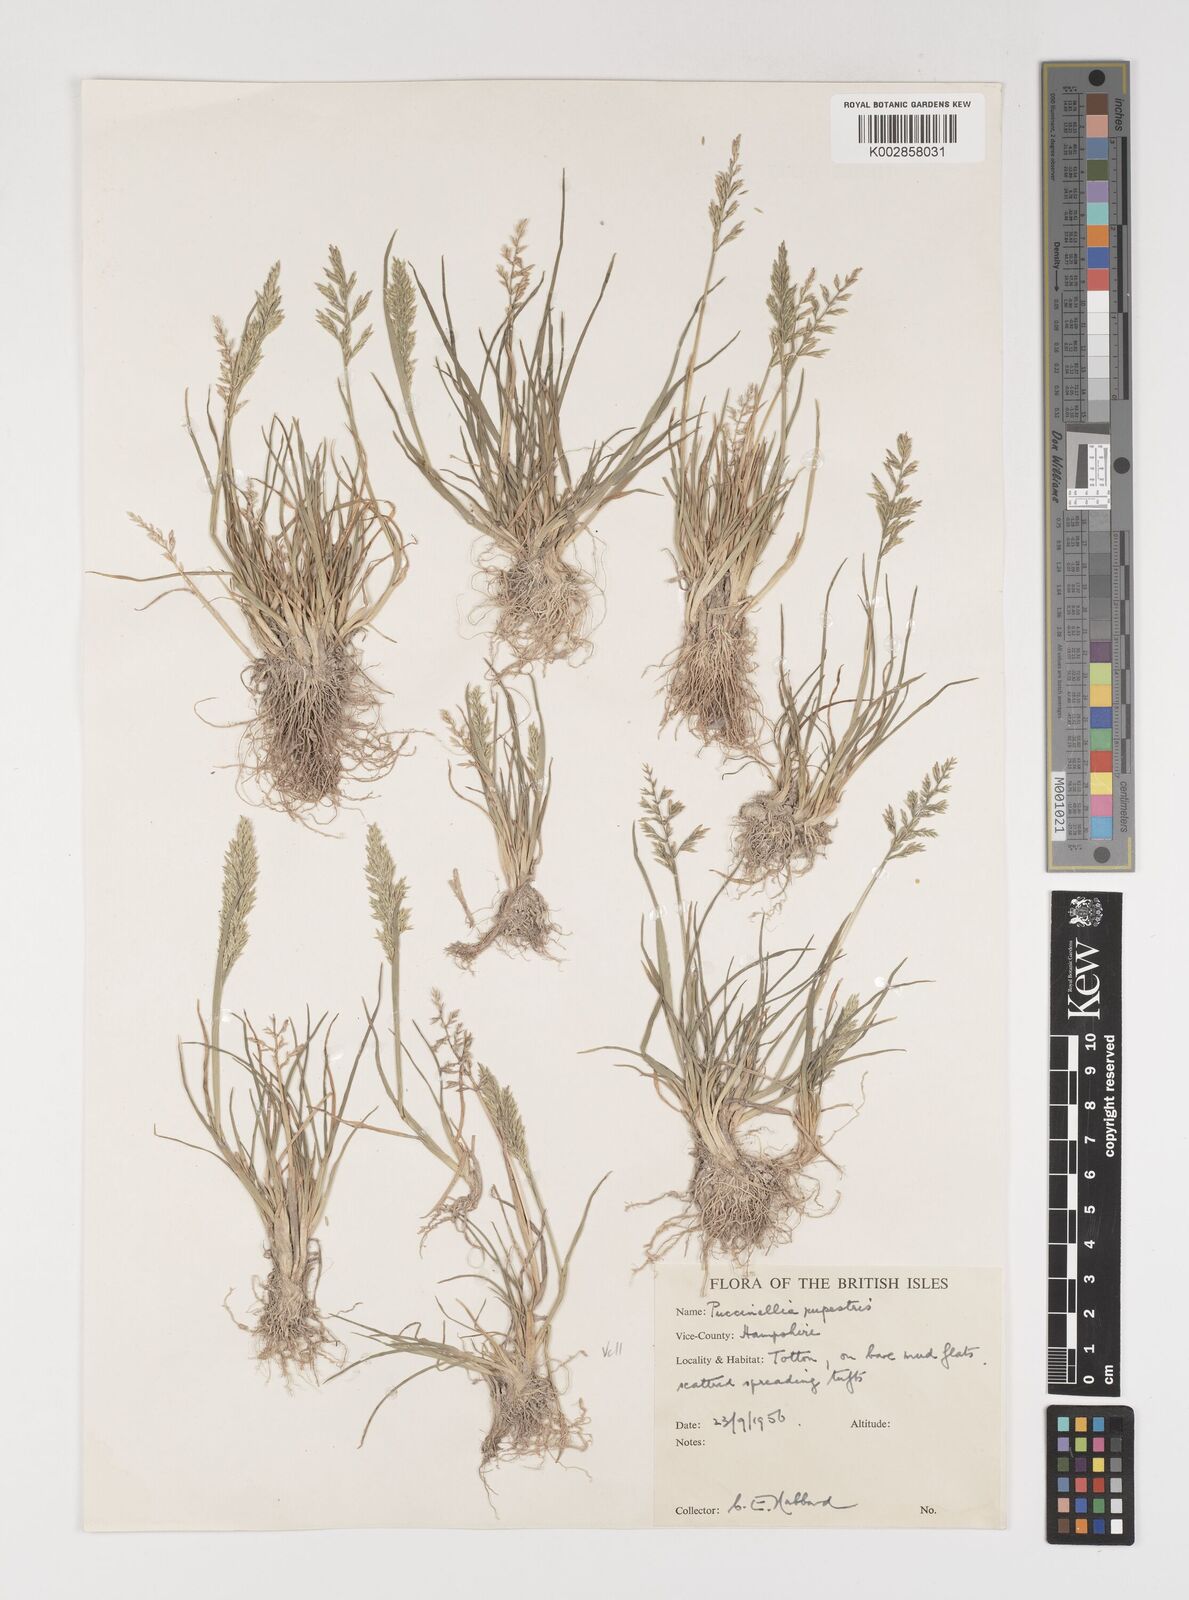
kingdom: Plantae
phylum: Tracheophyta
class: Liliopsida
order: Poales
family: Poaceae
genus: Puccinellia
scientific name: Puccinellia rupestris
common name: Stiff saltmarsh-grass
